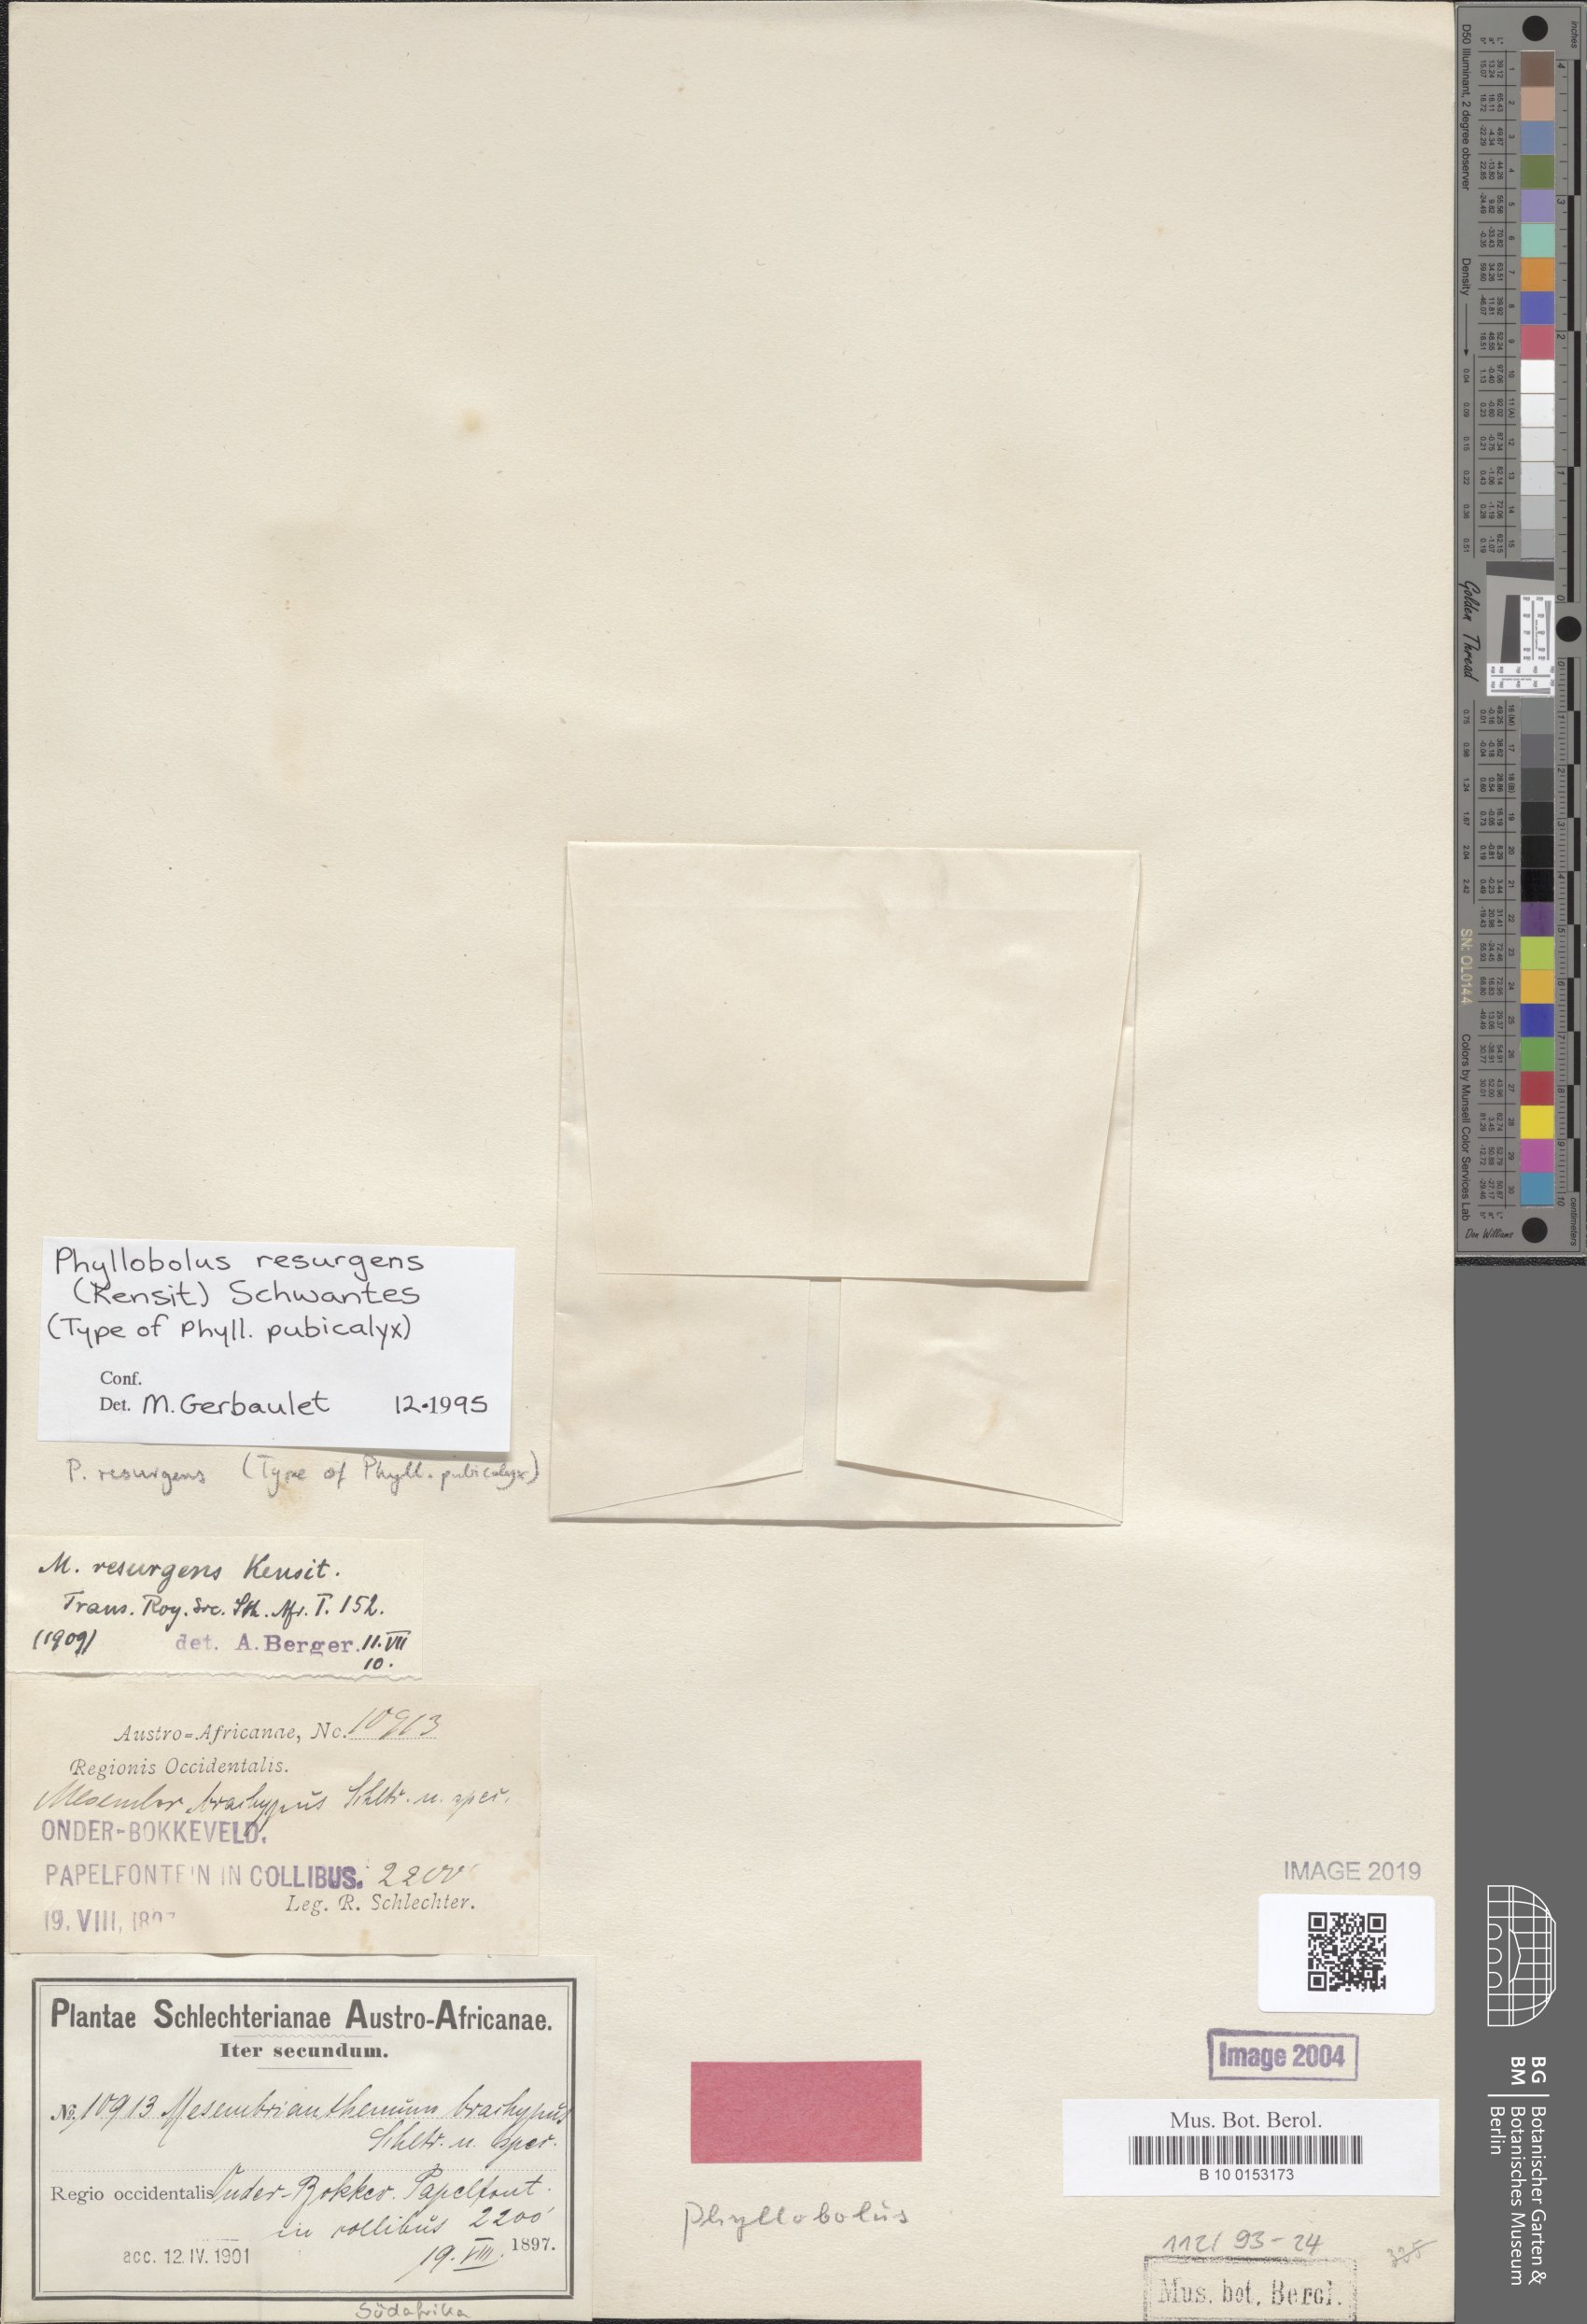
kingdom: Plantae
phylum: Tracheophyta
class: Magnoliopsida
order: Caryophyllales
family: Aizoaceae
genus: Mesembryanthemum
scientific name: Mesembryanthemum resurgens
